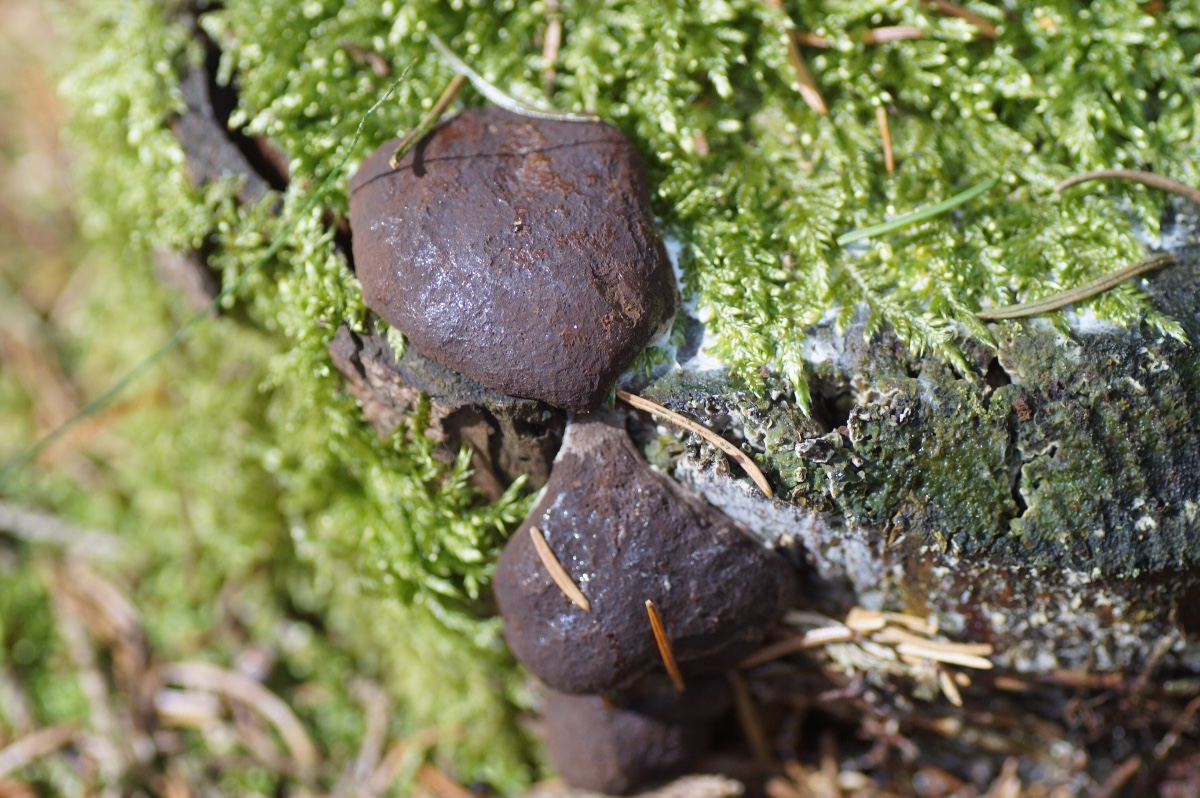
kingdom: Protozoa
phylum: Mycetozoa
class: Myxomycetes
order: Cribrariales
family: Tubiferaceae
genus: Reticularia
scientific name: Reticularia
